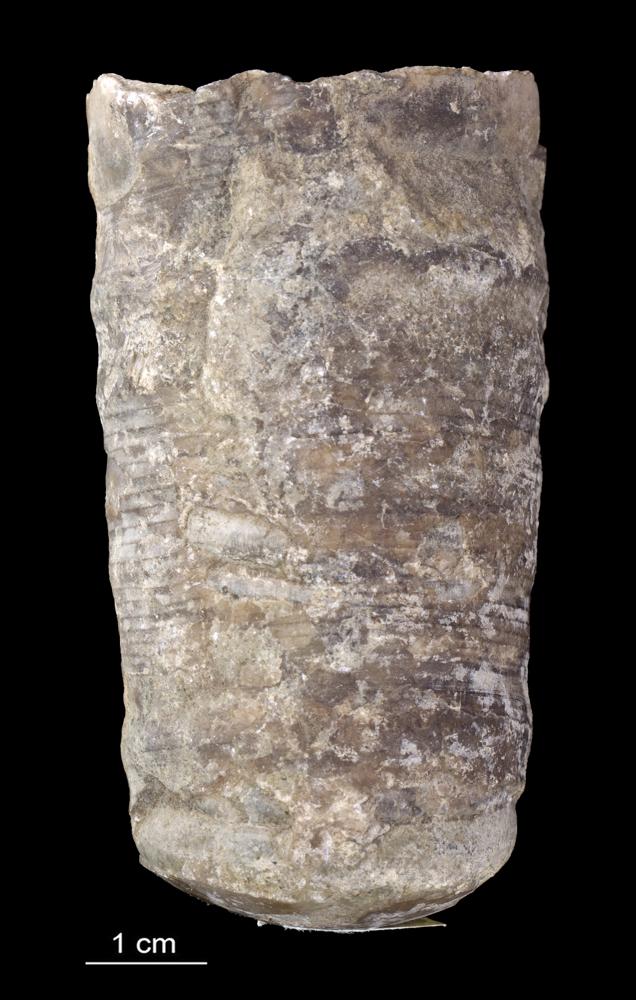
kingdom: Animalia
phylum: Mollusca
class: Cephalopoda
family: Endoceratidae
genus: Proterovaginoceras
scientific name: Proterovaginoceras Endoceras incognitum
